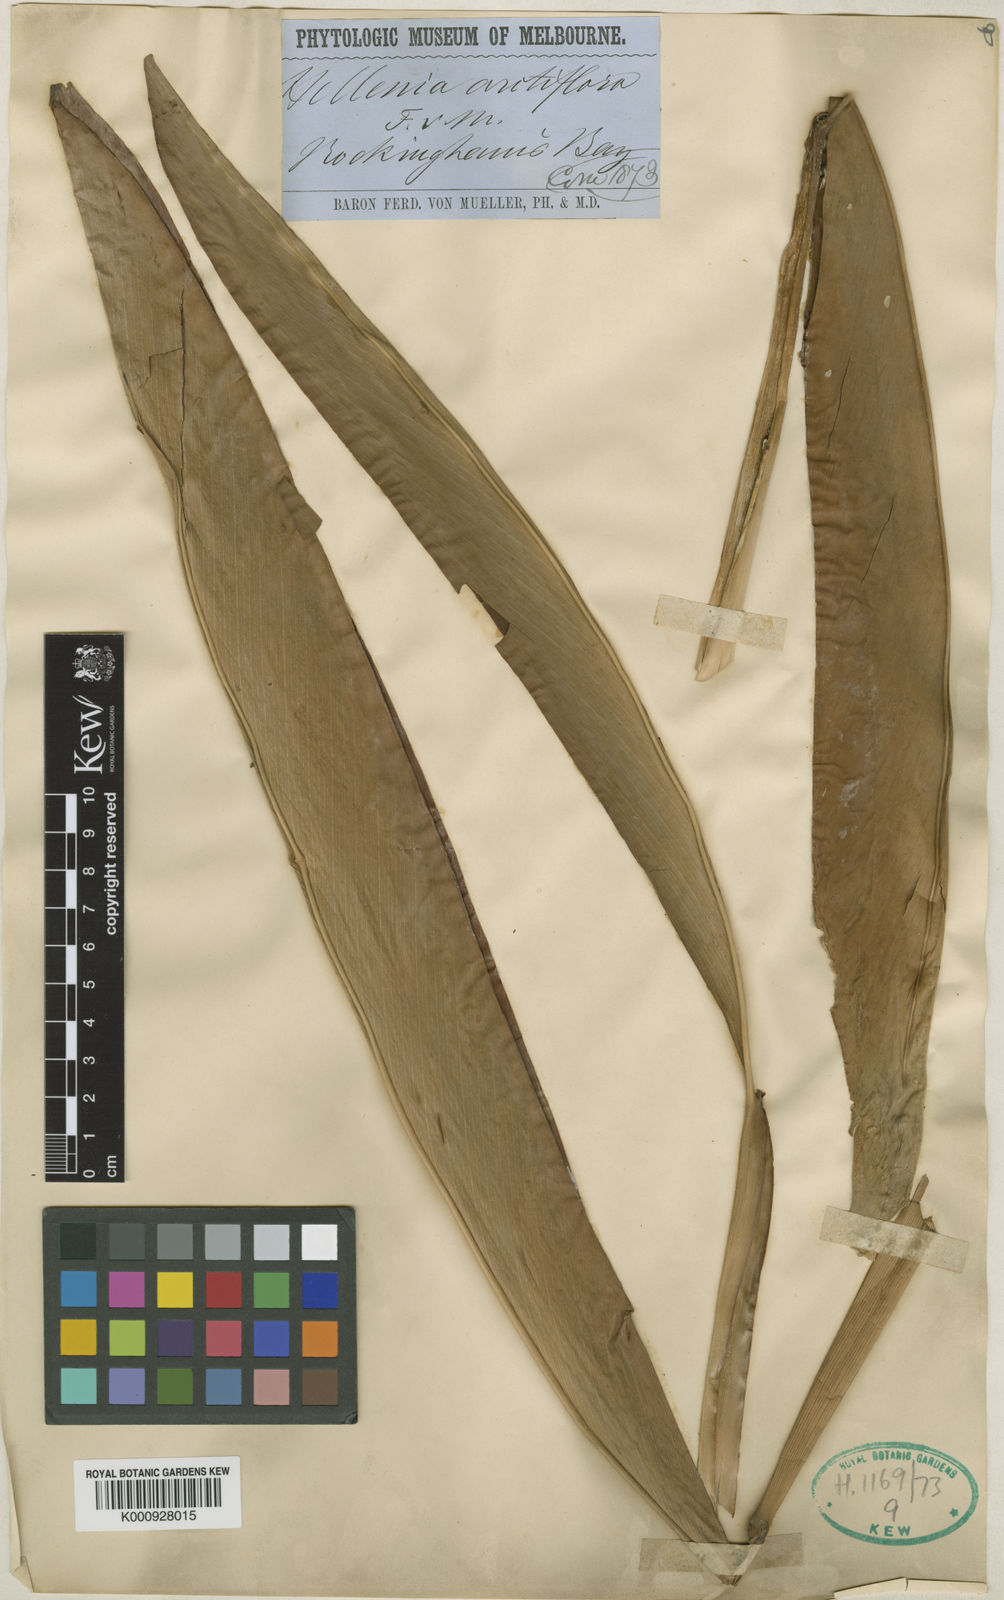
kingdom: Plantae
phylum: Tracheophyta
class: Liliopsida
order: Zingiberales
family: Zingiberaceae
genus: Alpinia
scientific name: Alpinia arctiflora
